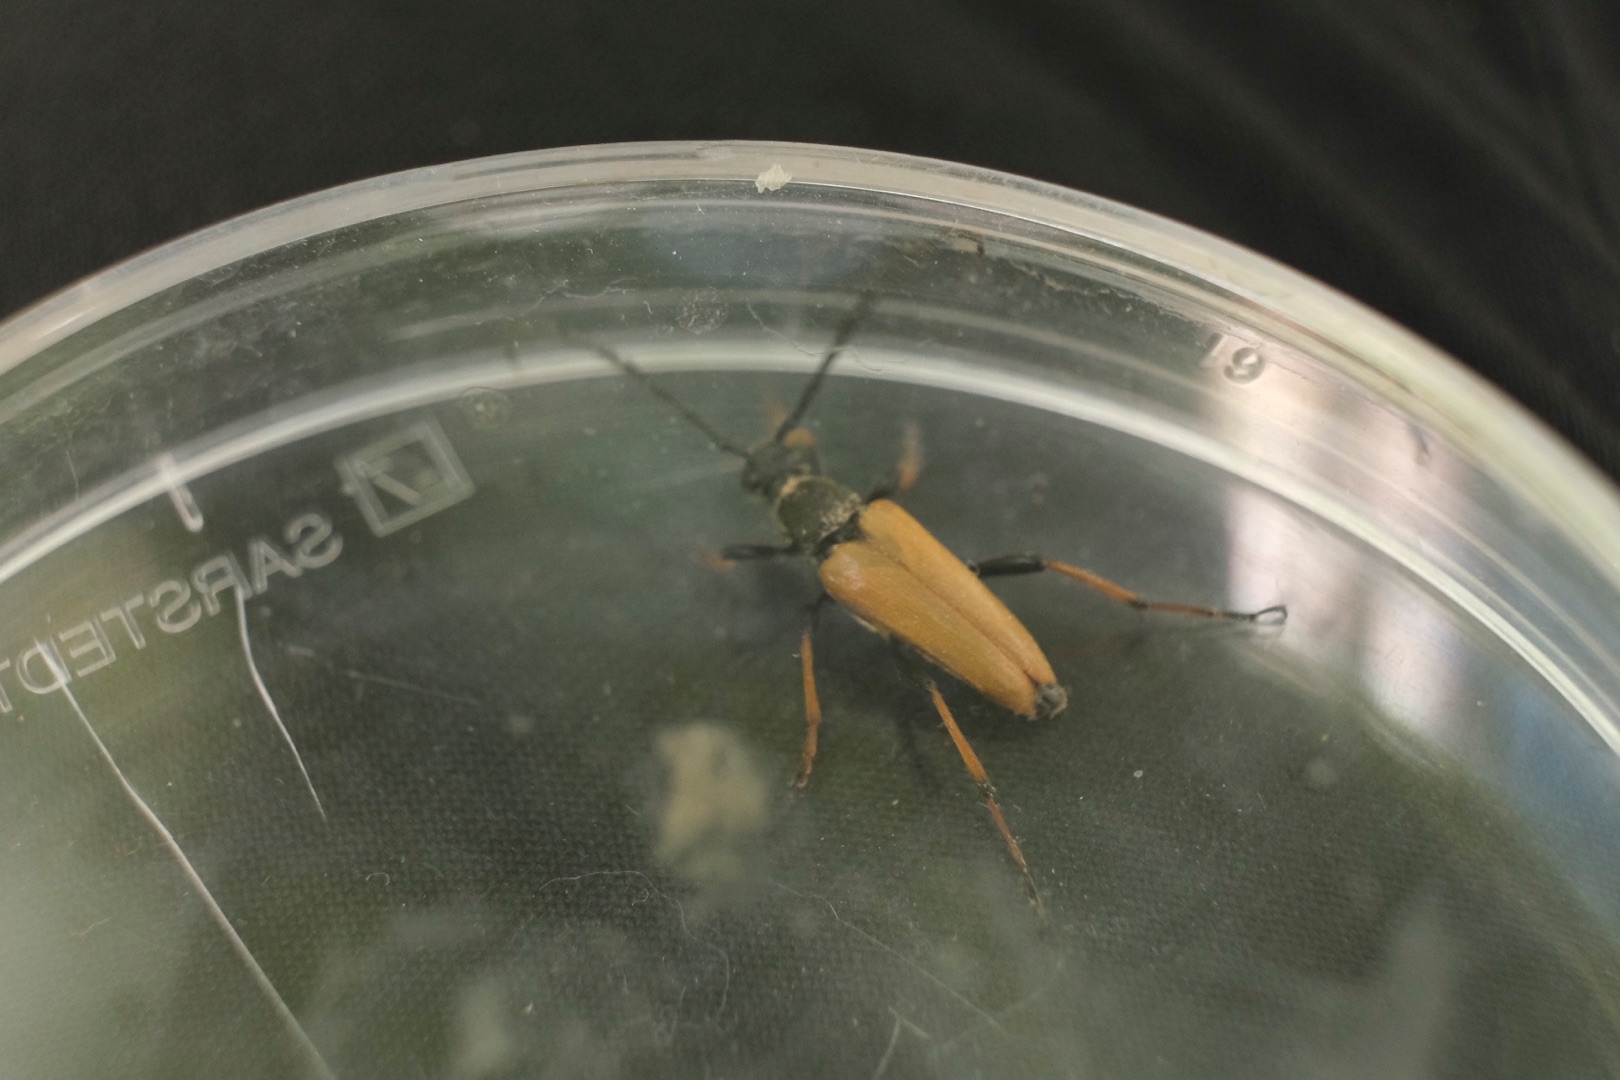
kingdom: Animalia
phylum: Arthropoda
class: Insecta
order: Coleoptera
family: Cerambycidae
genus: Stictoleptura
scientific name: Stictoleptura rubra
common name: Rød blomsterbuk
